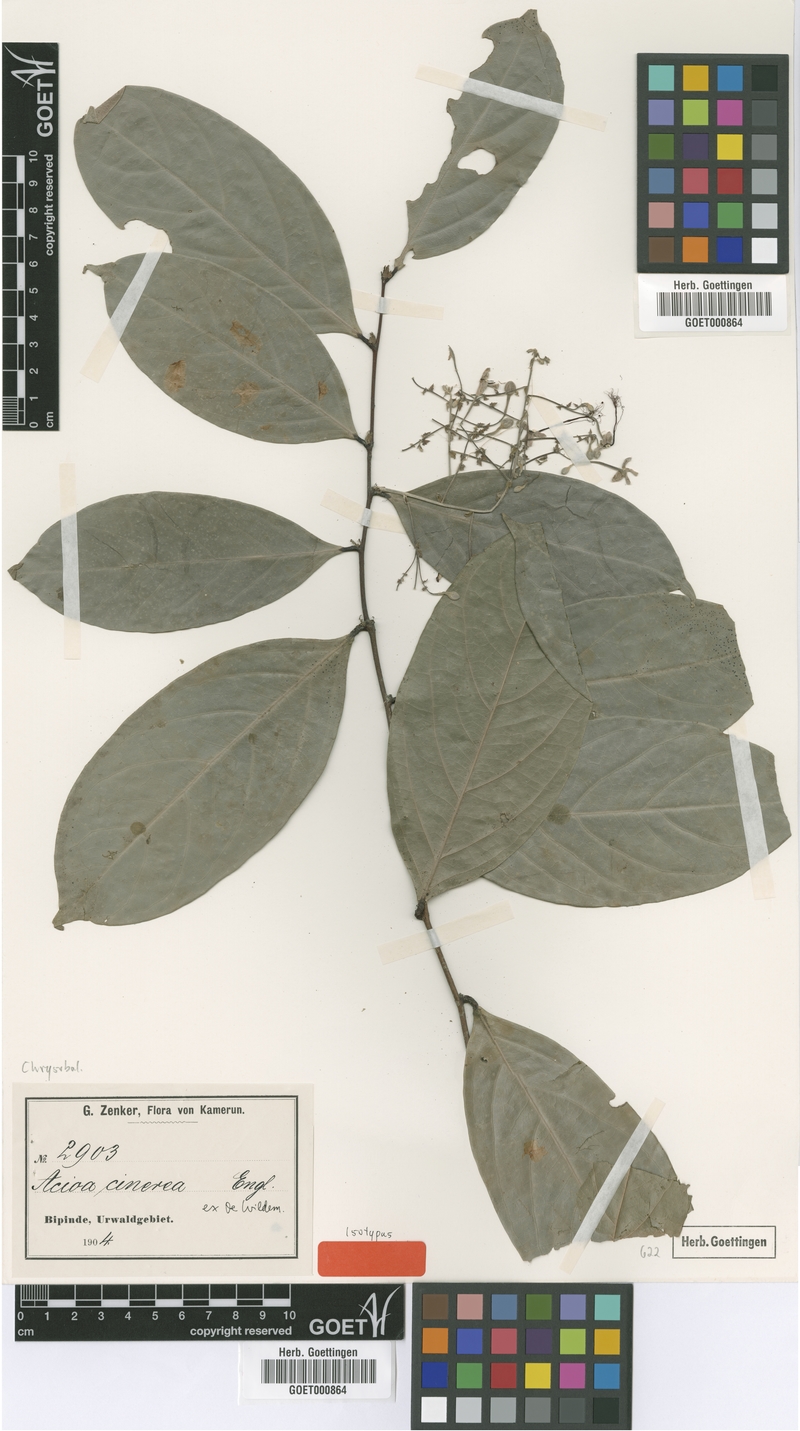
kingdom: Plantae
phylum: Tracheophyta
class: Magnoliopsida
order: Malpighiales
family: Chrysobalanaceae
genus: Dactyladenia
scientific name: Dactyladenia cinerea
